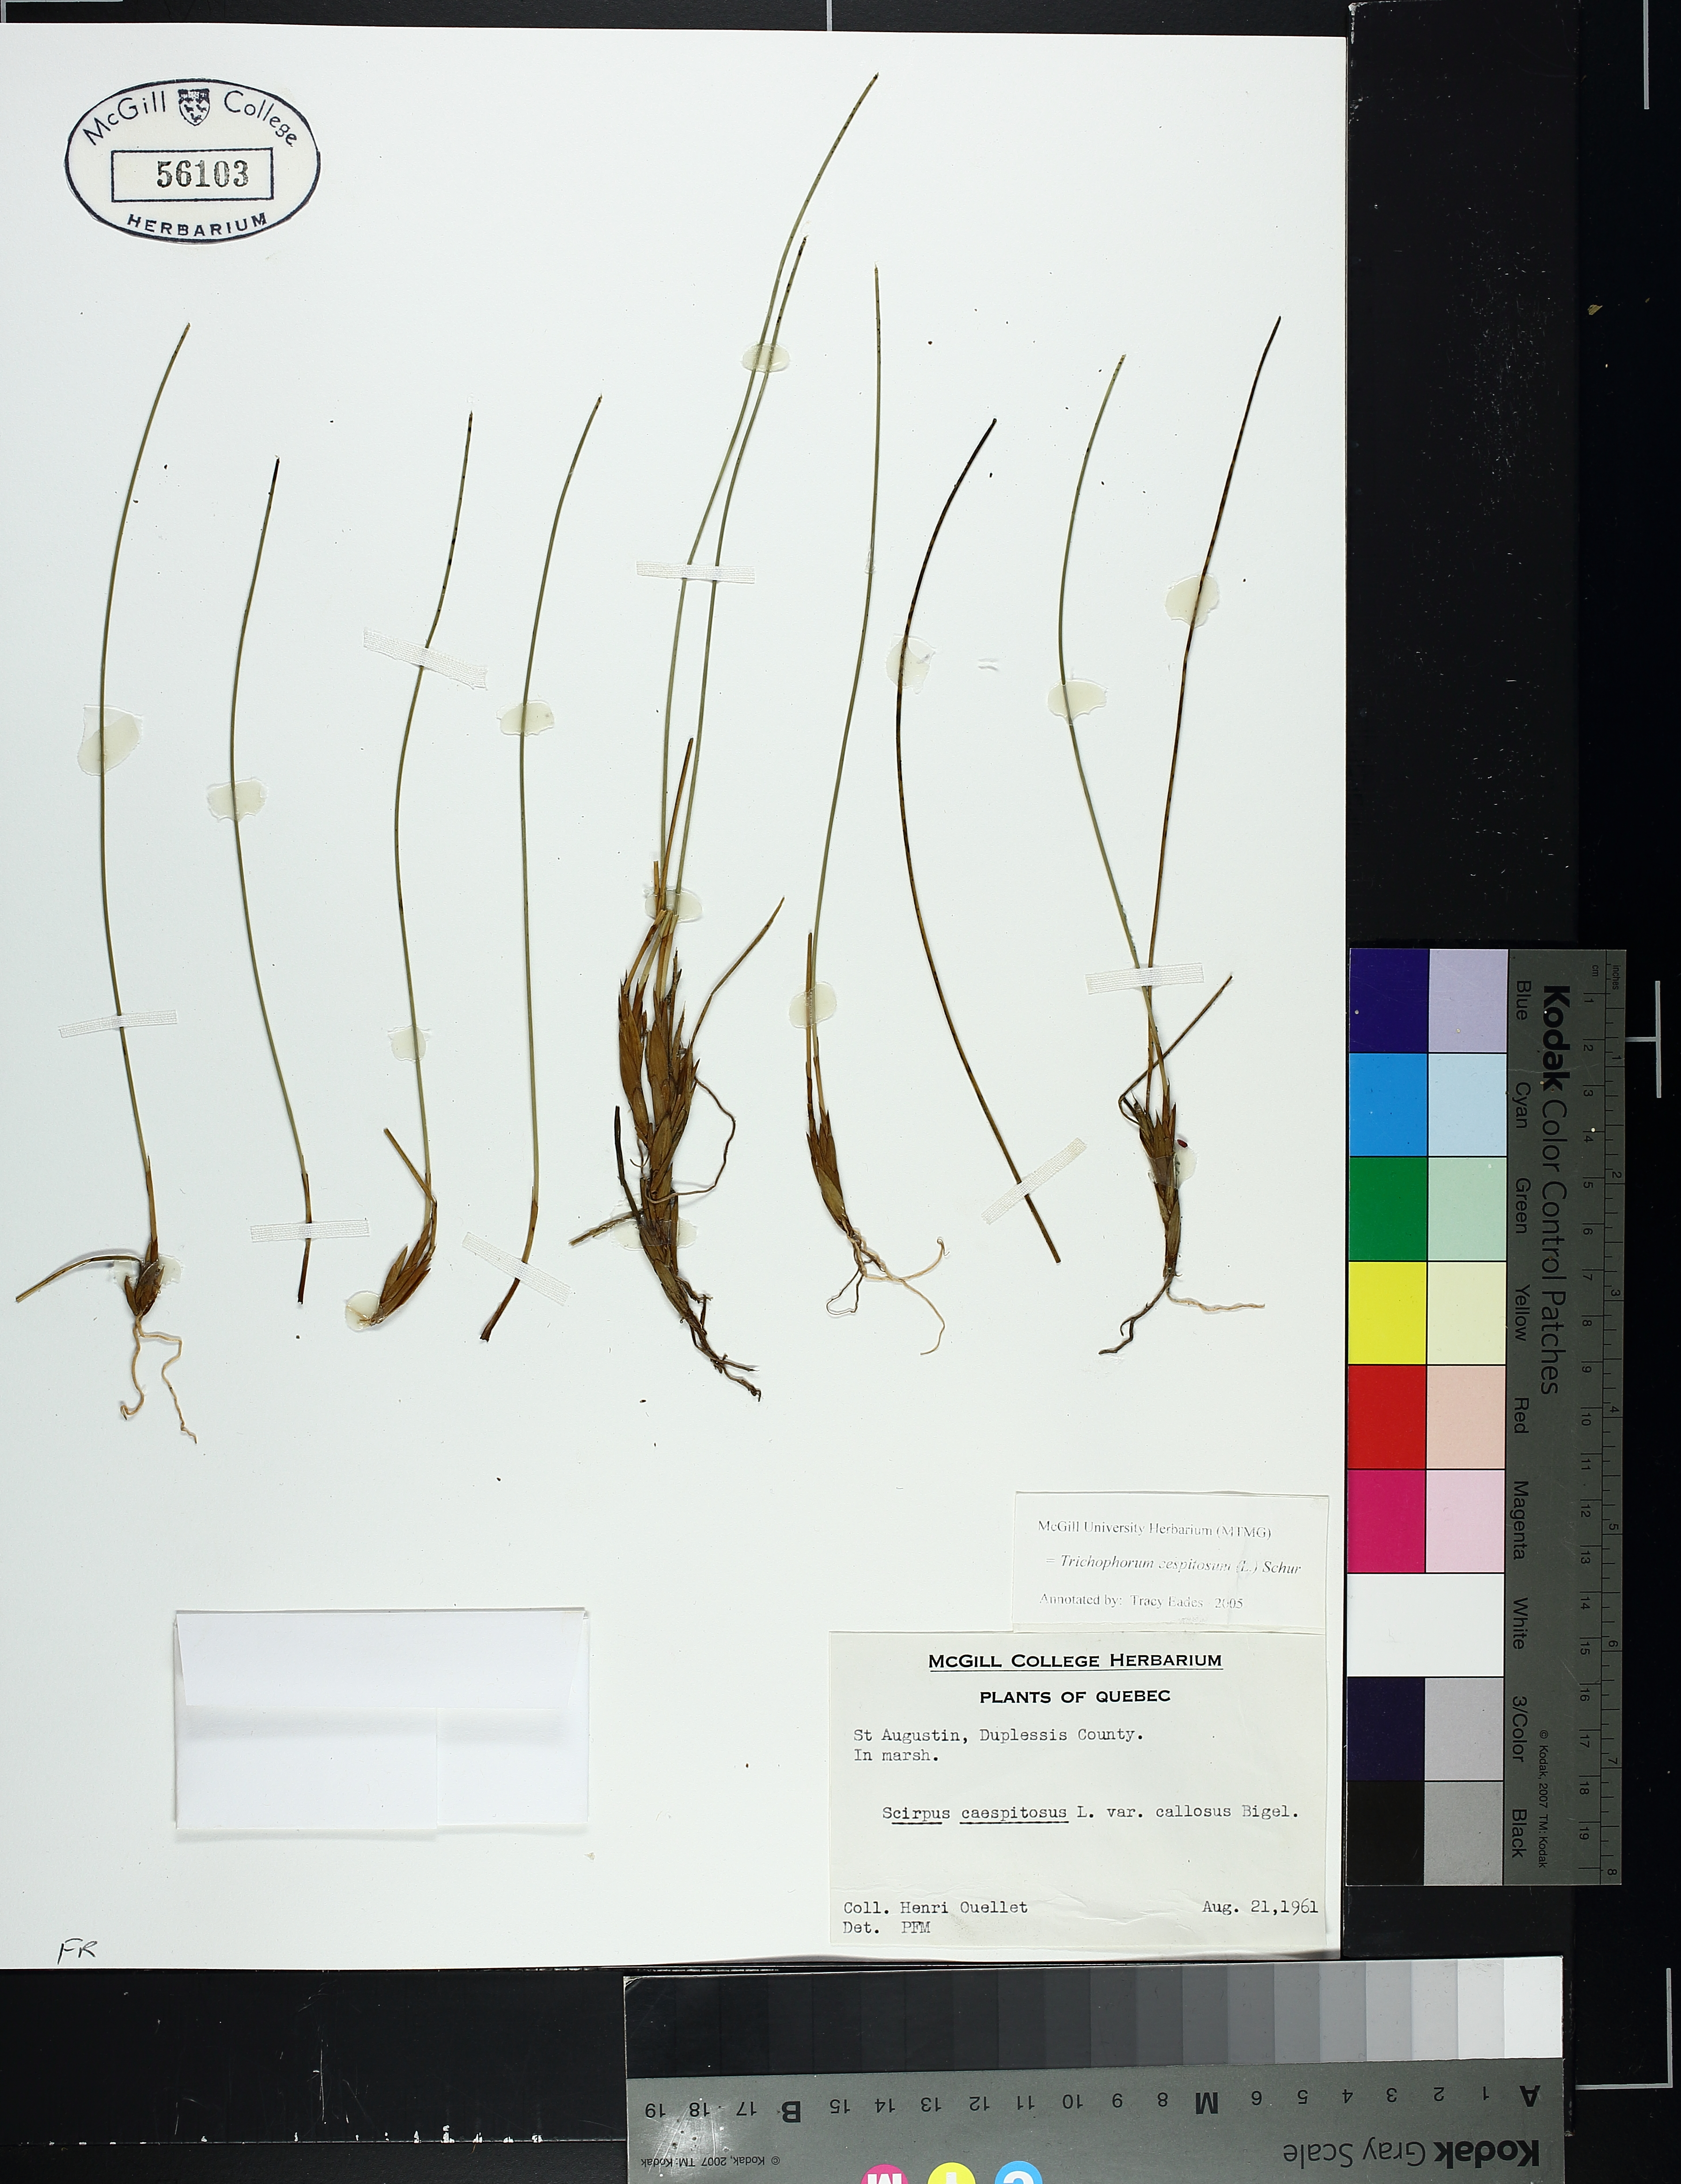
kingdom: Plantae
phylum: Tracheophyta
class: Liliopsida
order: Poales
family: Cyperaceae
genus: Trichophorum
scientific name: Trichophorum cespitosum
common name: Cespitose bulrush
